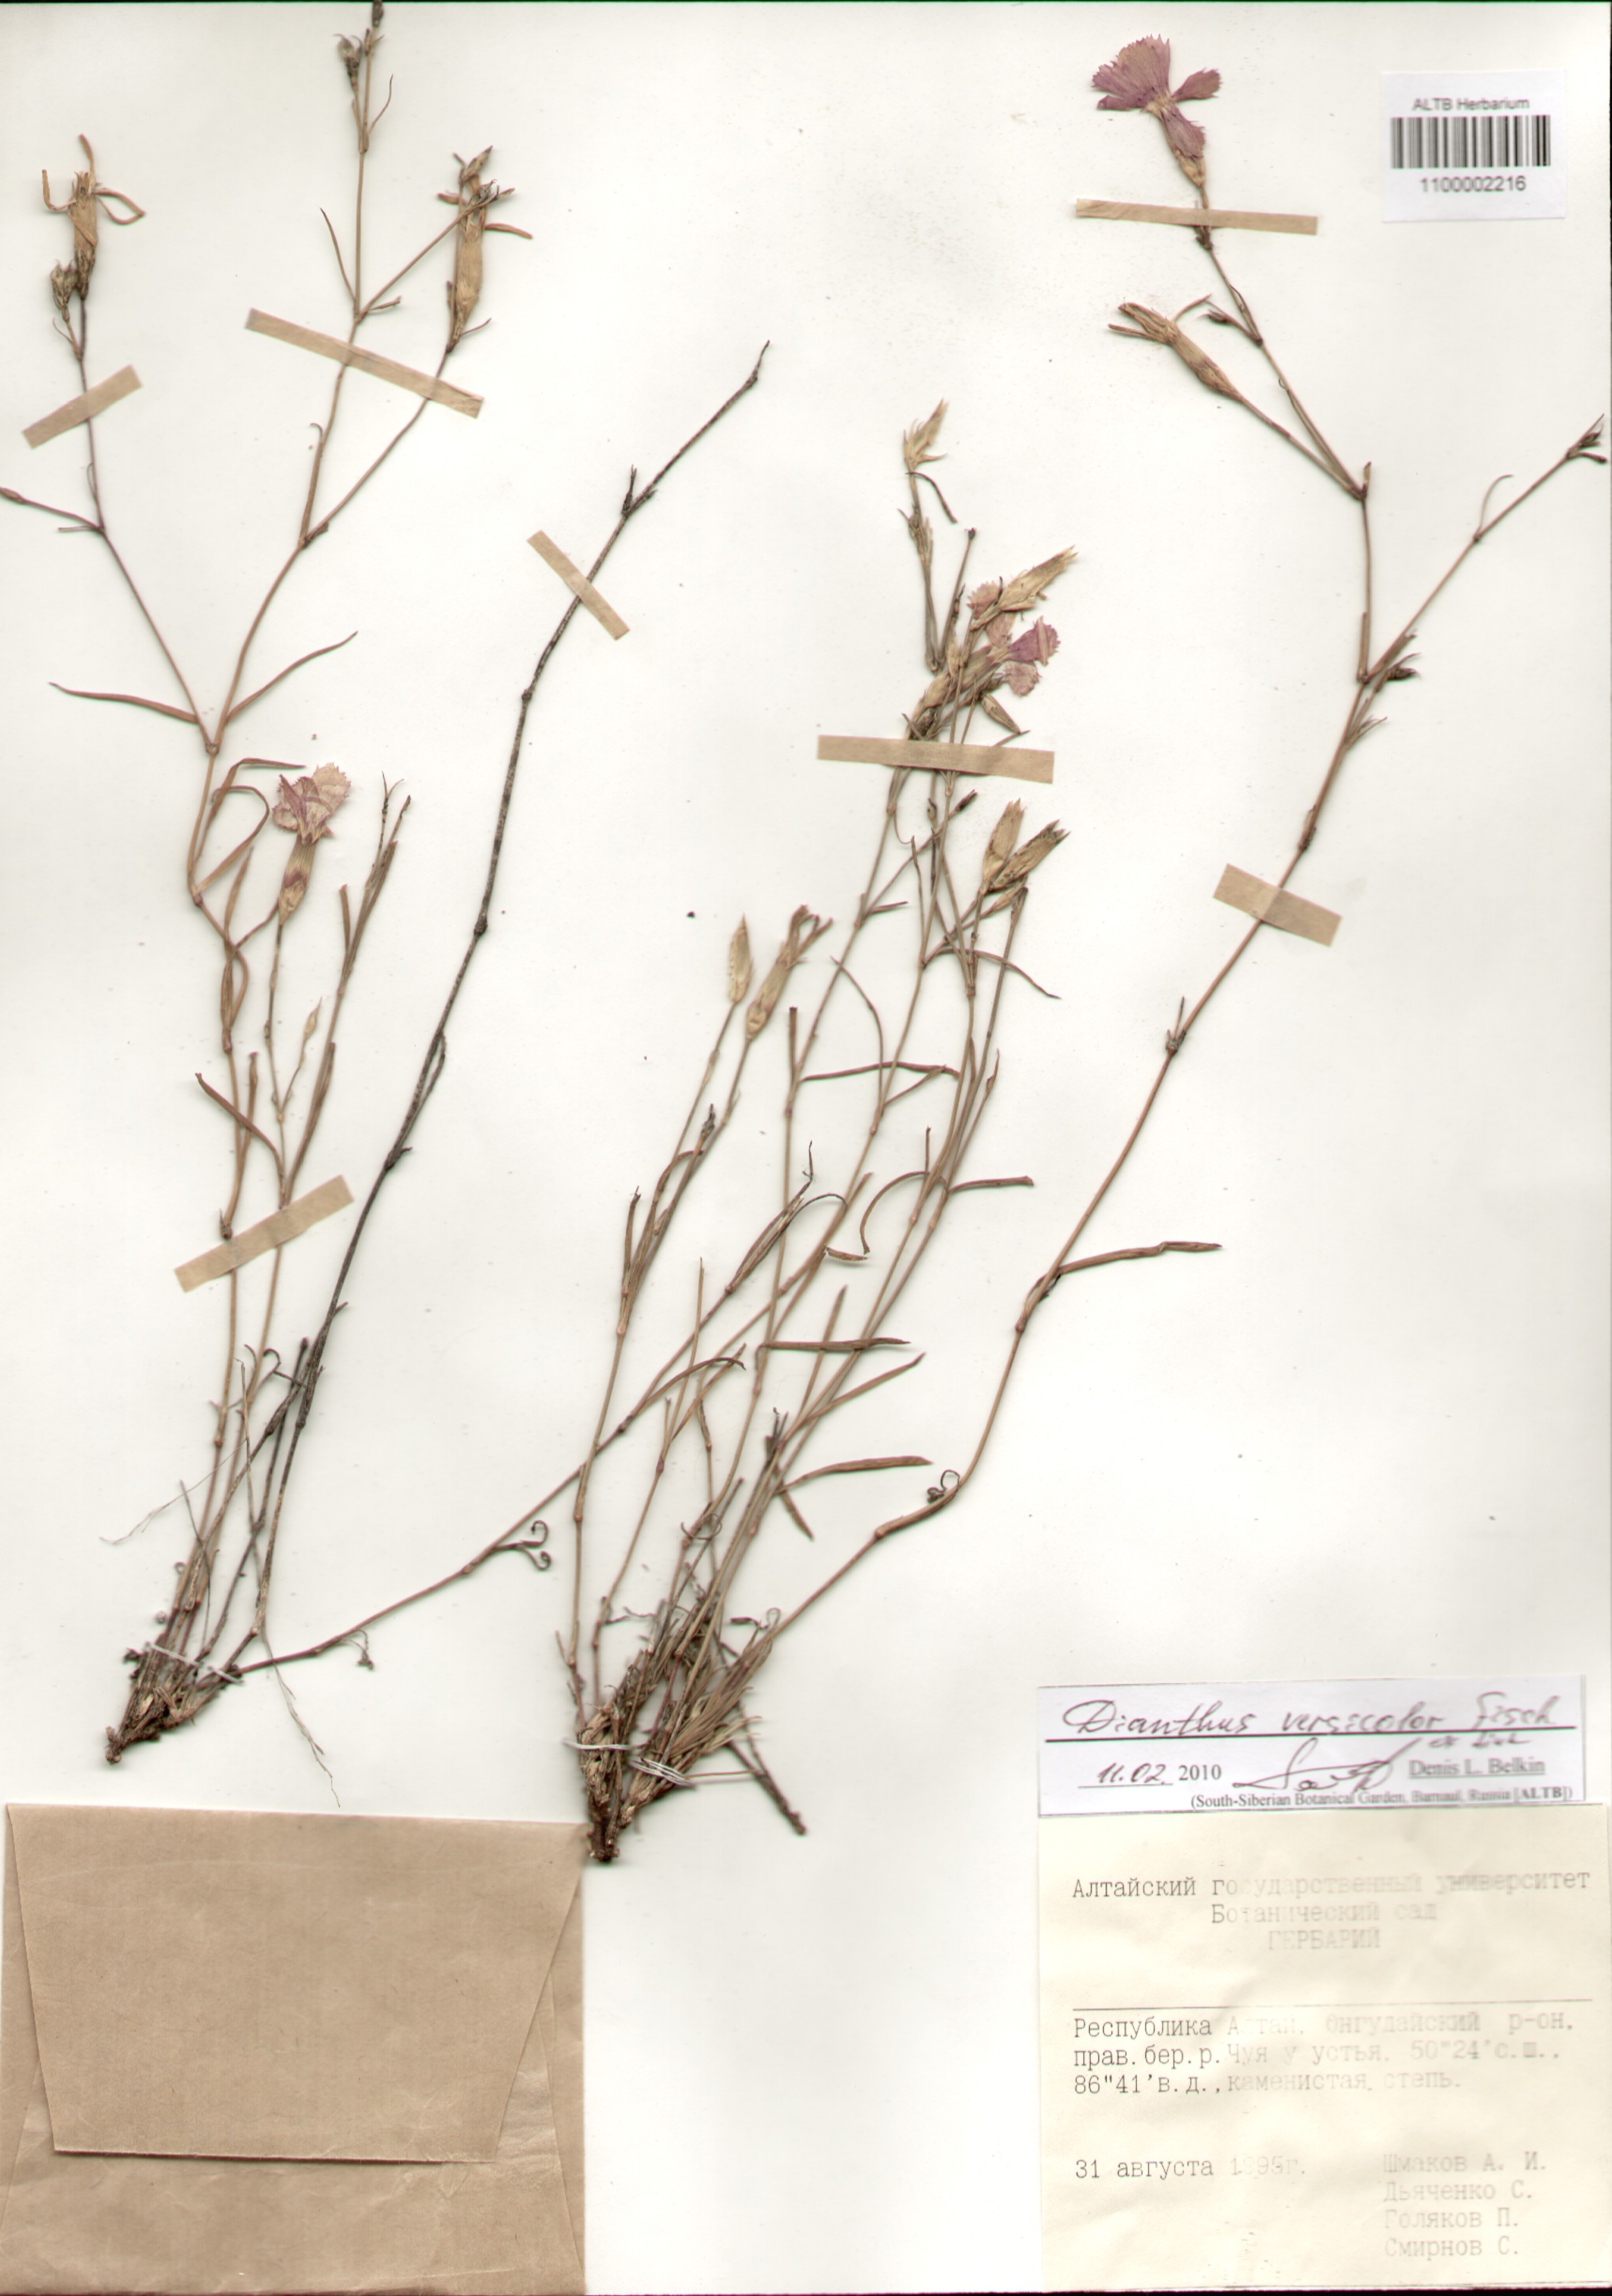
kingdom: Plantae
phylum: Tracheophyta
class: Magnoliopsida
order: Caryophyllales
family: Caryophyllaceae
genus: Dianthus
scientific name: Dianthus chinensis
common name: Rainbow pink
